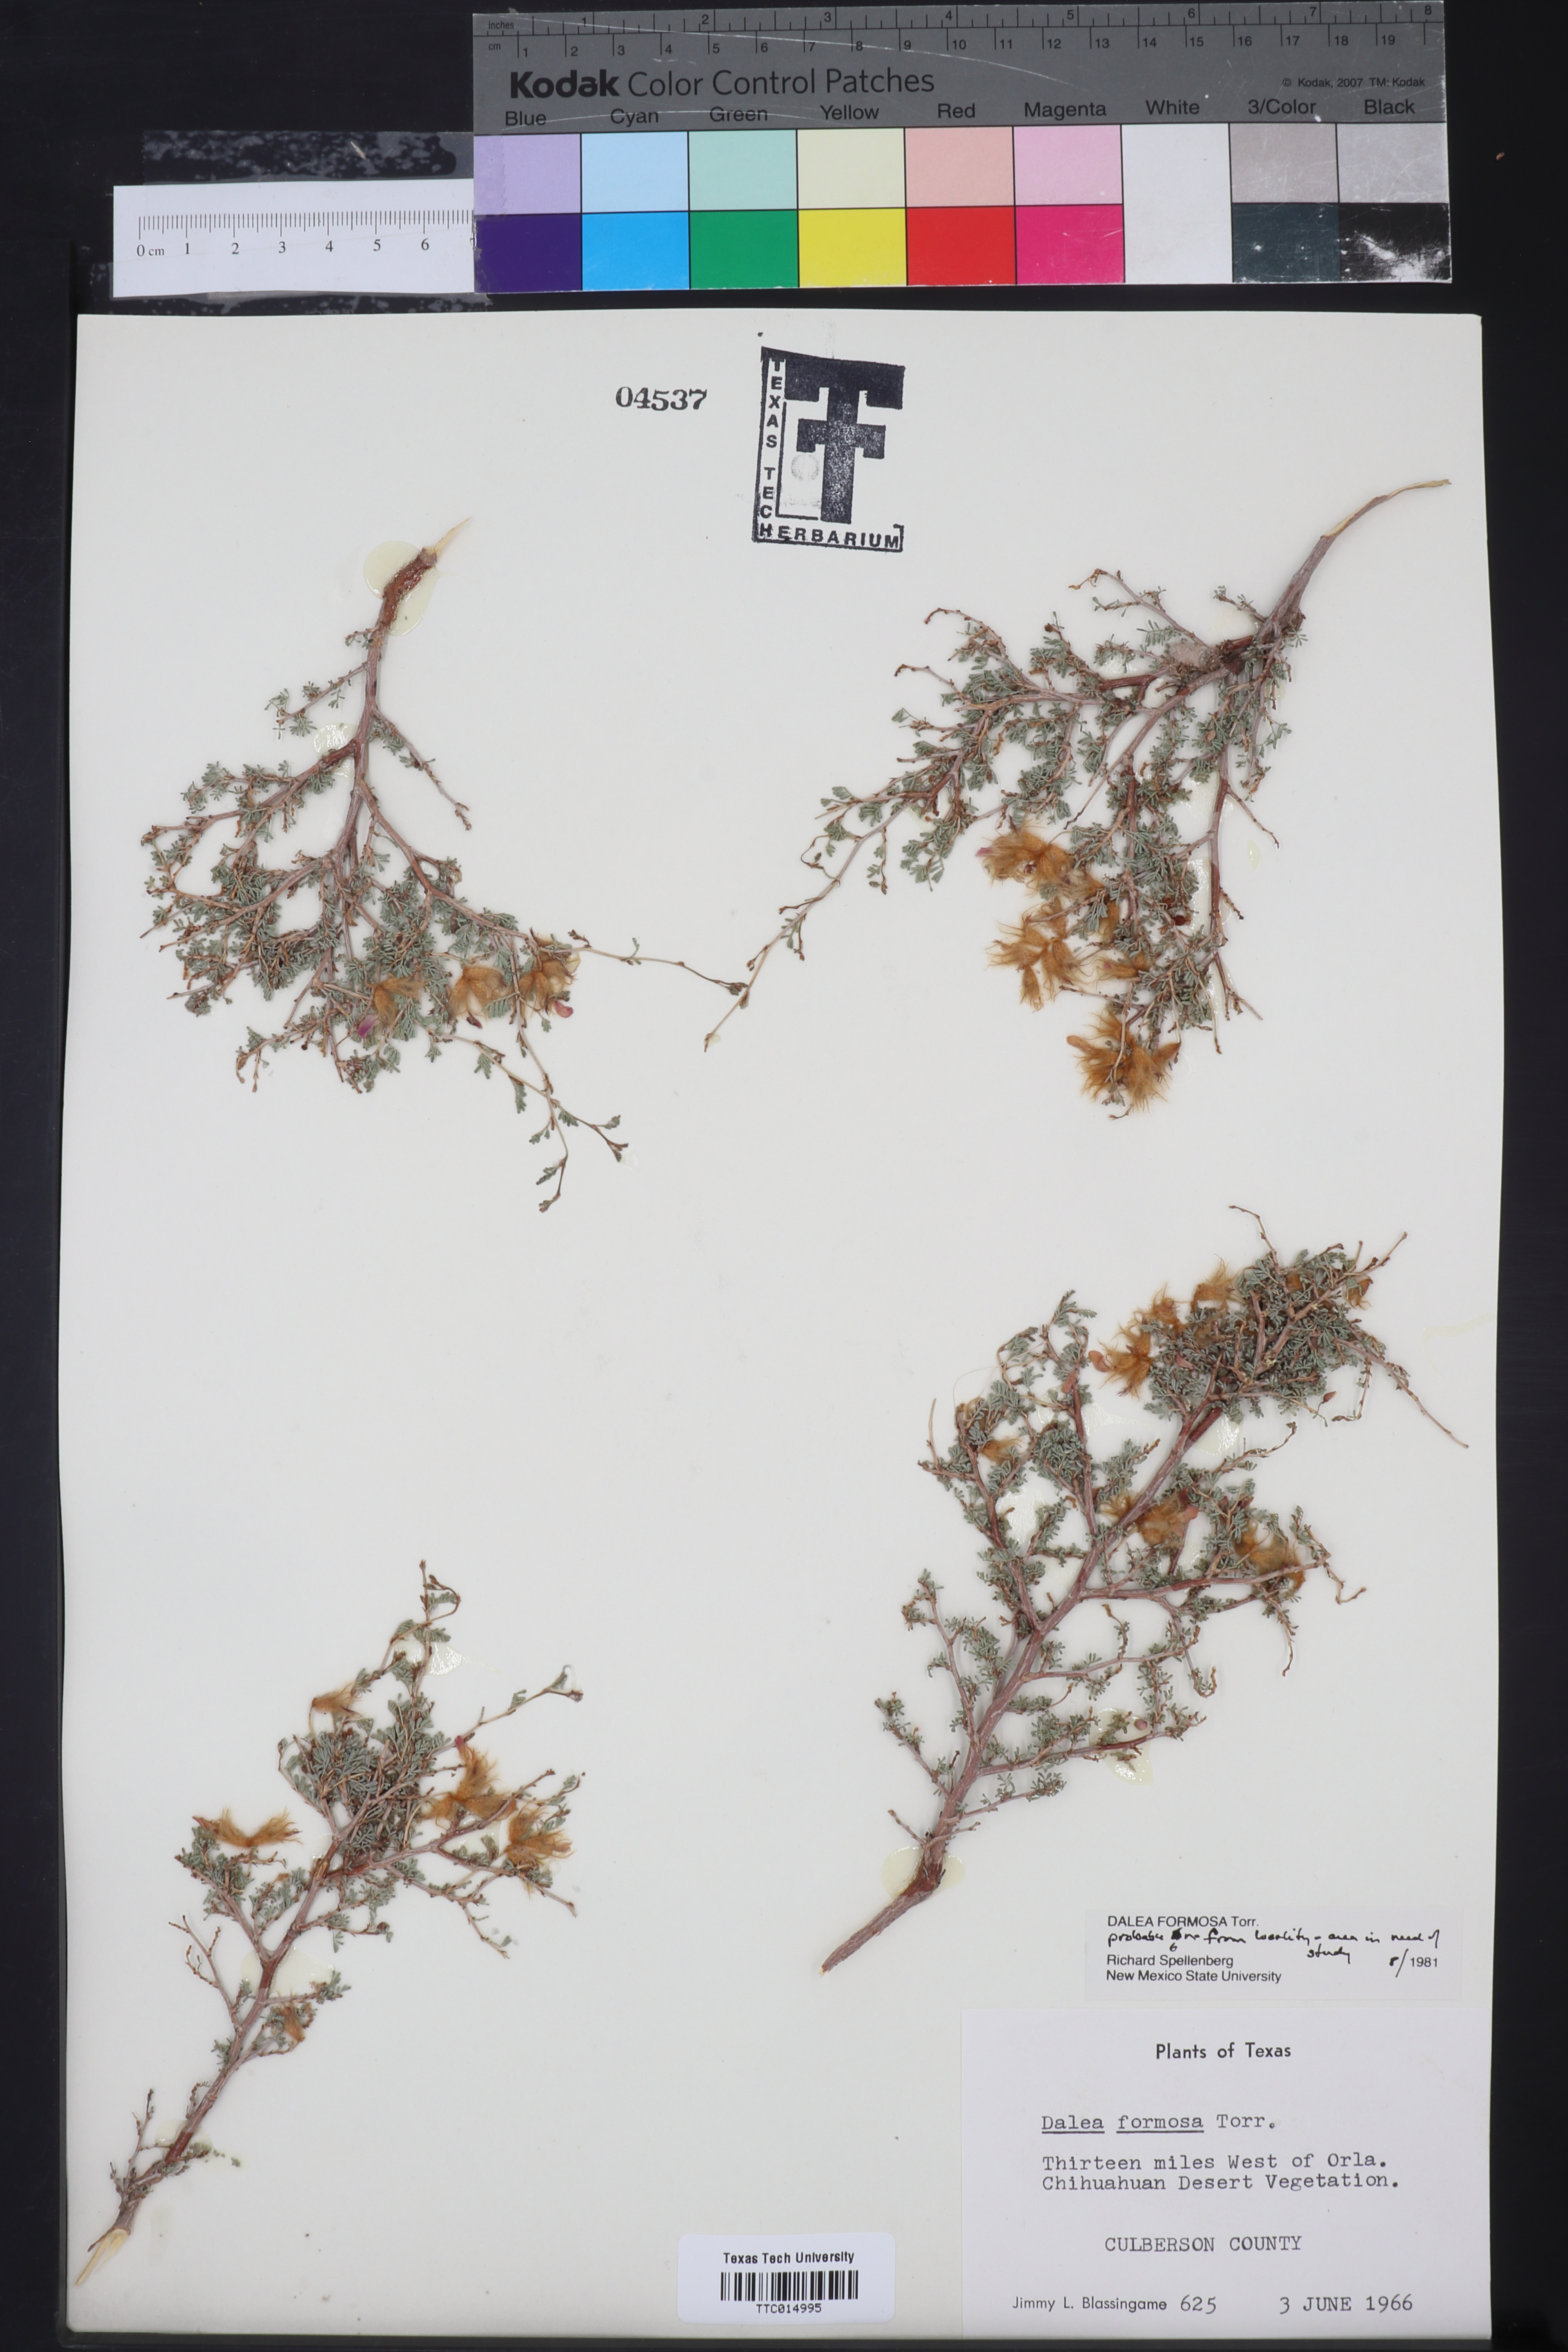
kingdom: Plantae
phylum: Tracheophyta
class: Magnoliopsida
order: Fabales
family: Fabaceae
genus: Dalea
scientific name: Dalea formosa
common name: Feather-plume dalea
